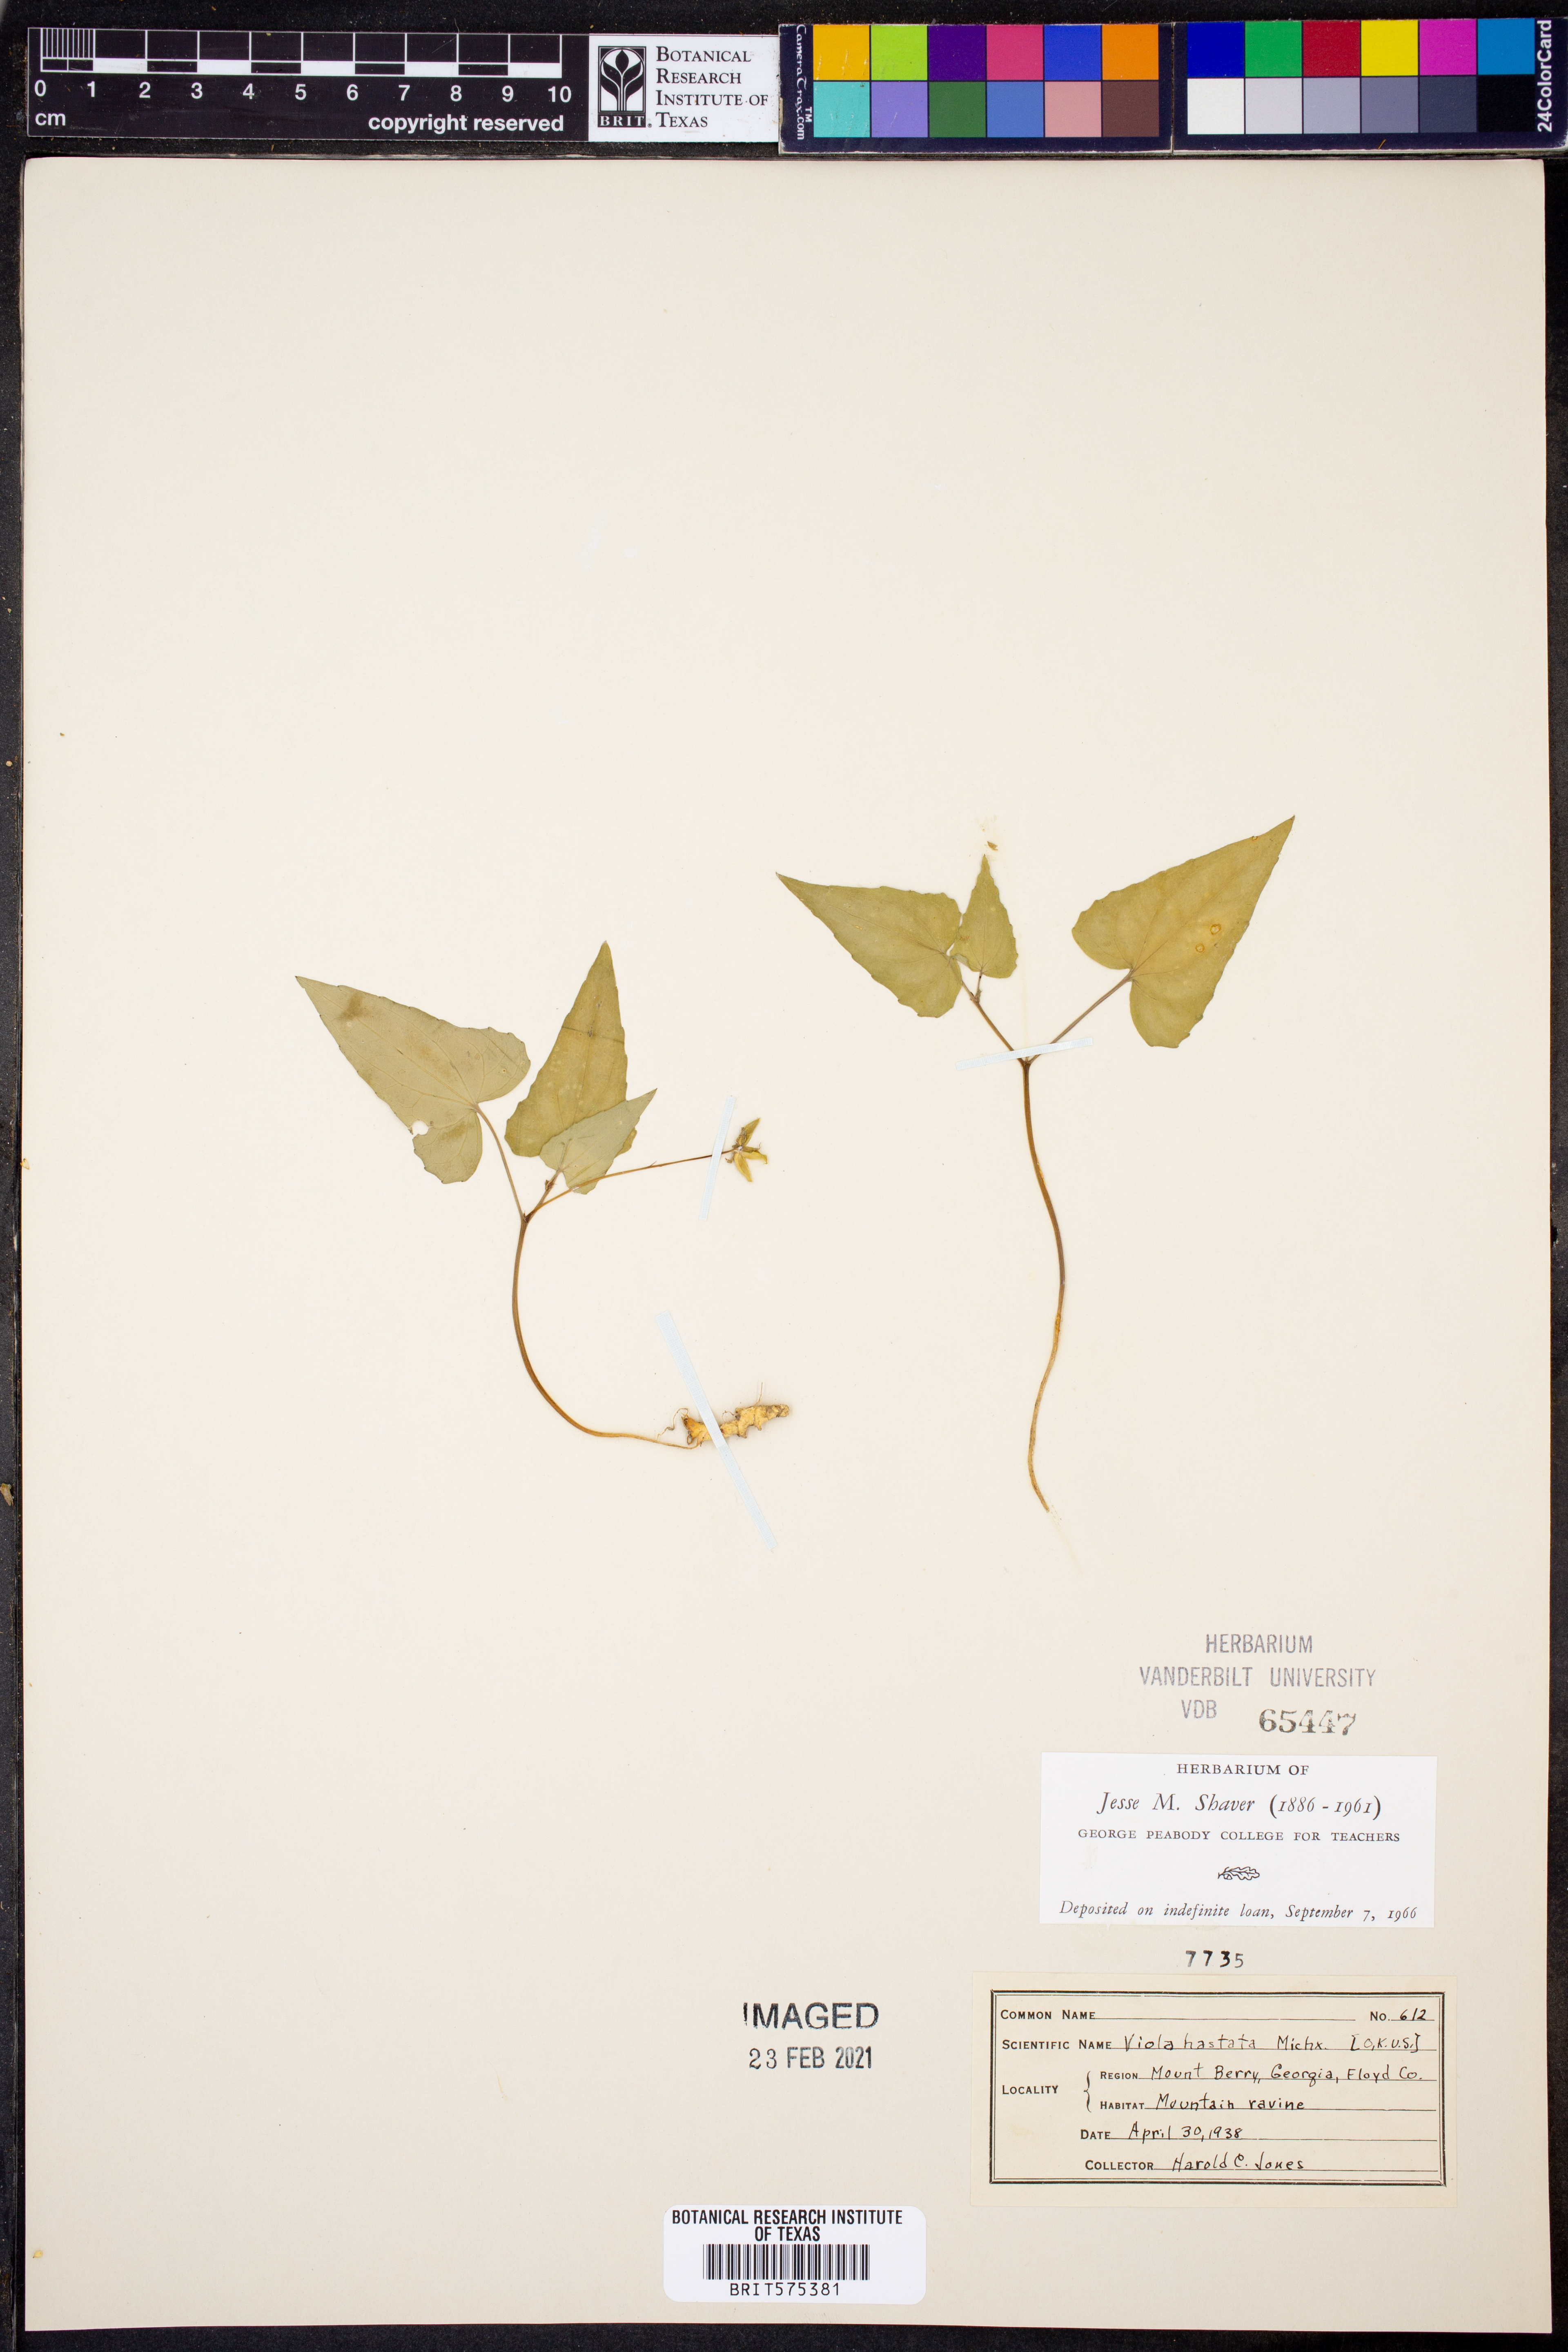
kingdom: Plantae
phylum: Tracheophyta
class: Magnoliopsida
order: Malpighiales
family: Violaceae
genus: Viola
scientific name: Viola hastata
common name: Spear-leaf violet
